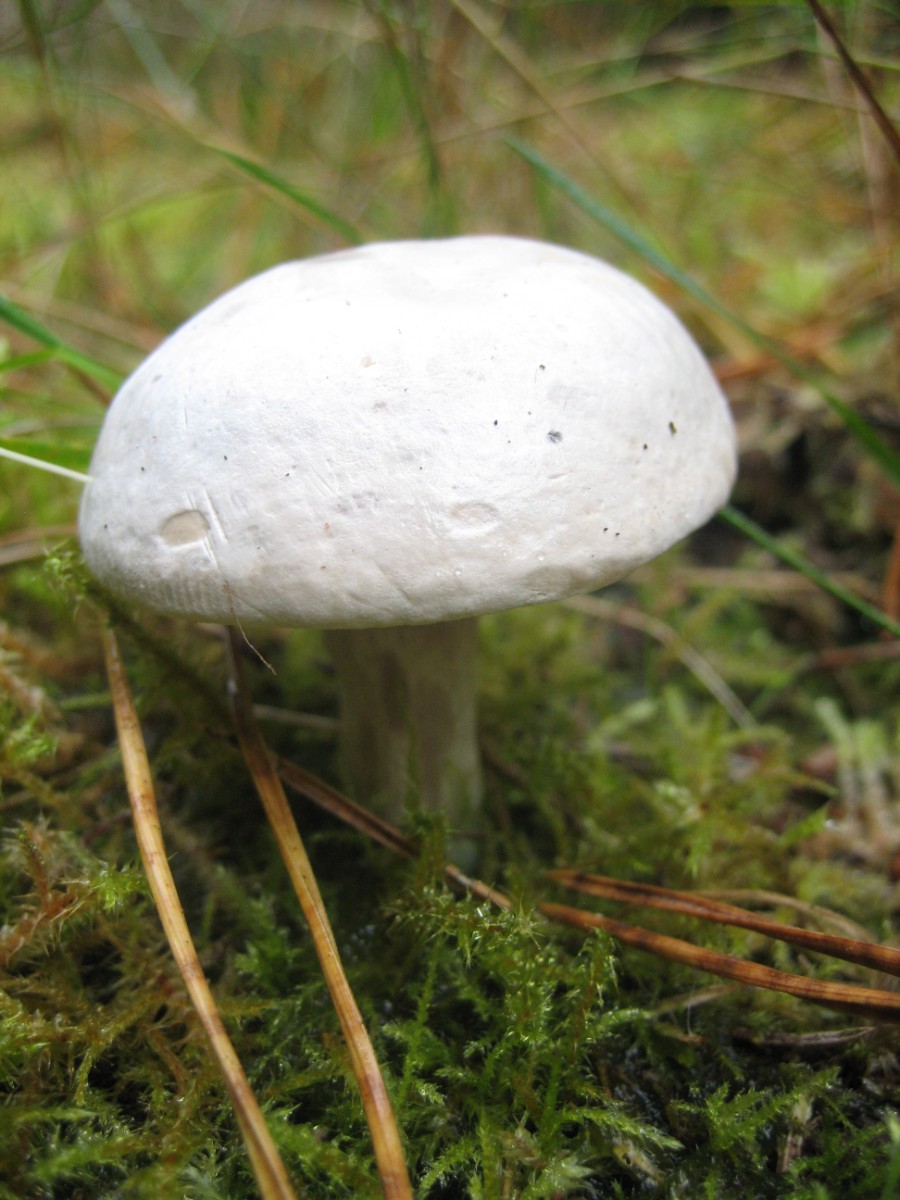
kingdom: Fungi
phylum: Basidiomycota
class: Agaricomycetes
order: Agaricales
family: Entolomataceae
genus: Clitopilus
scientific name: Clitopilus prunulus
